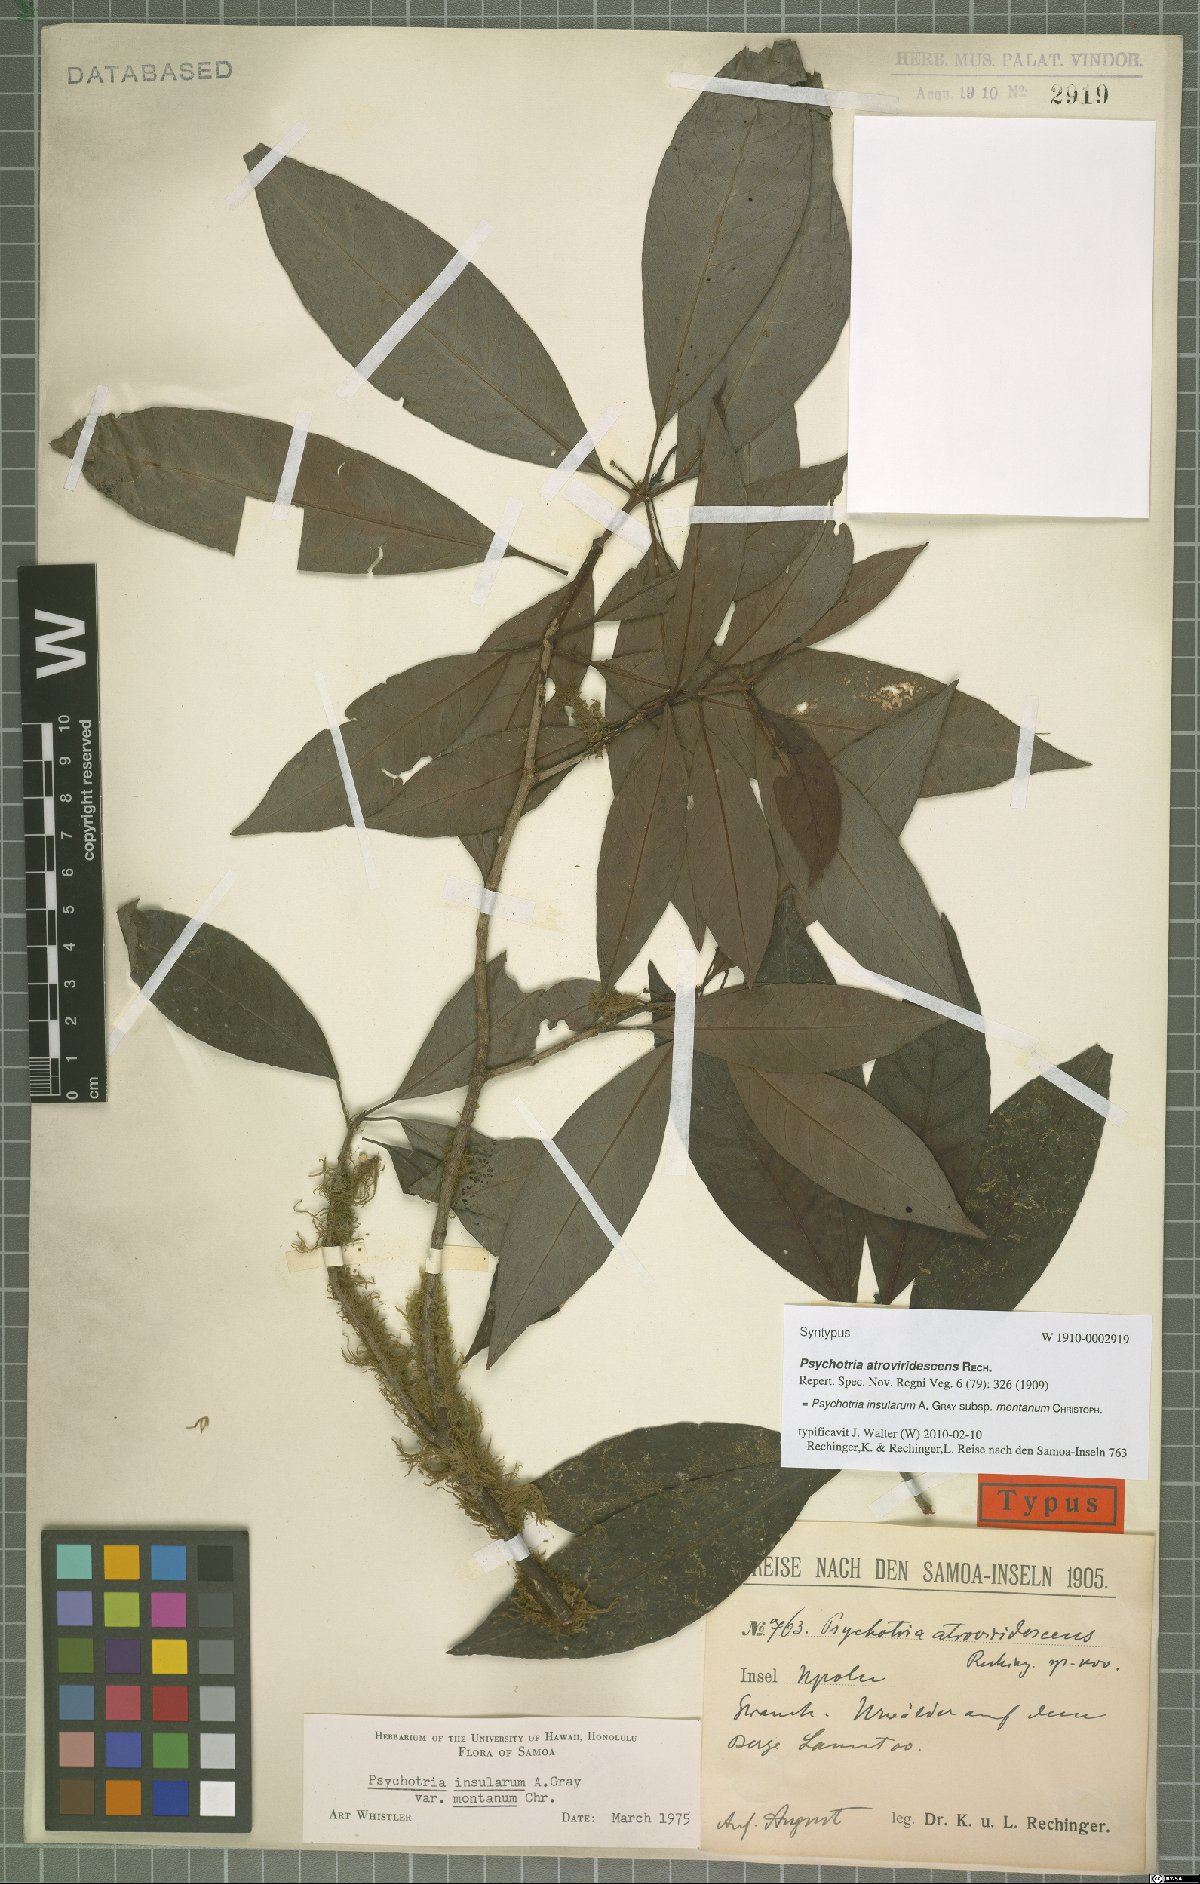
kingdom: Plantae
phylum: Tracheophyta
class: Magnoliopsida
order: Gentianales
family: Rubiaceae
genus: Psychotria
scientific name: Psychotria insularum
